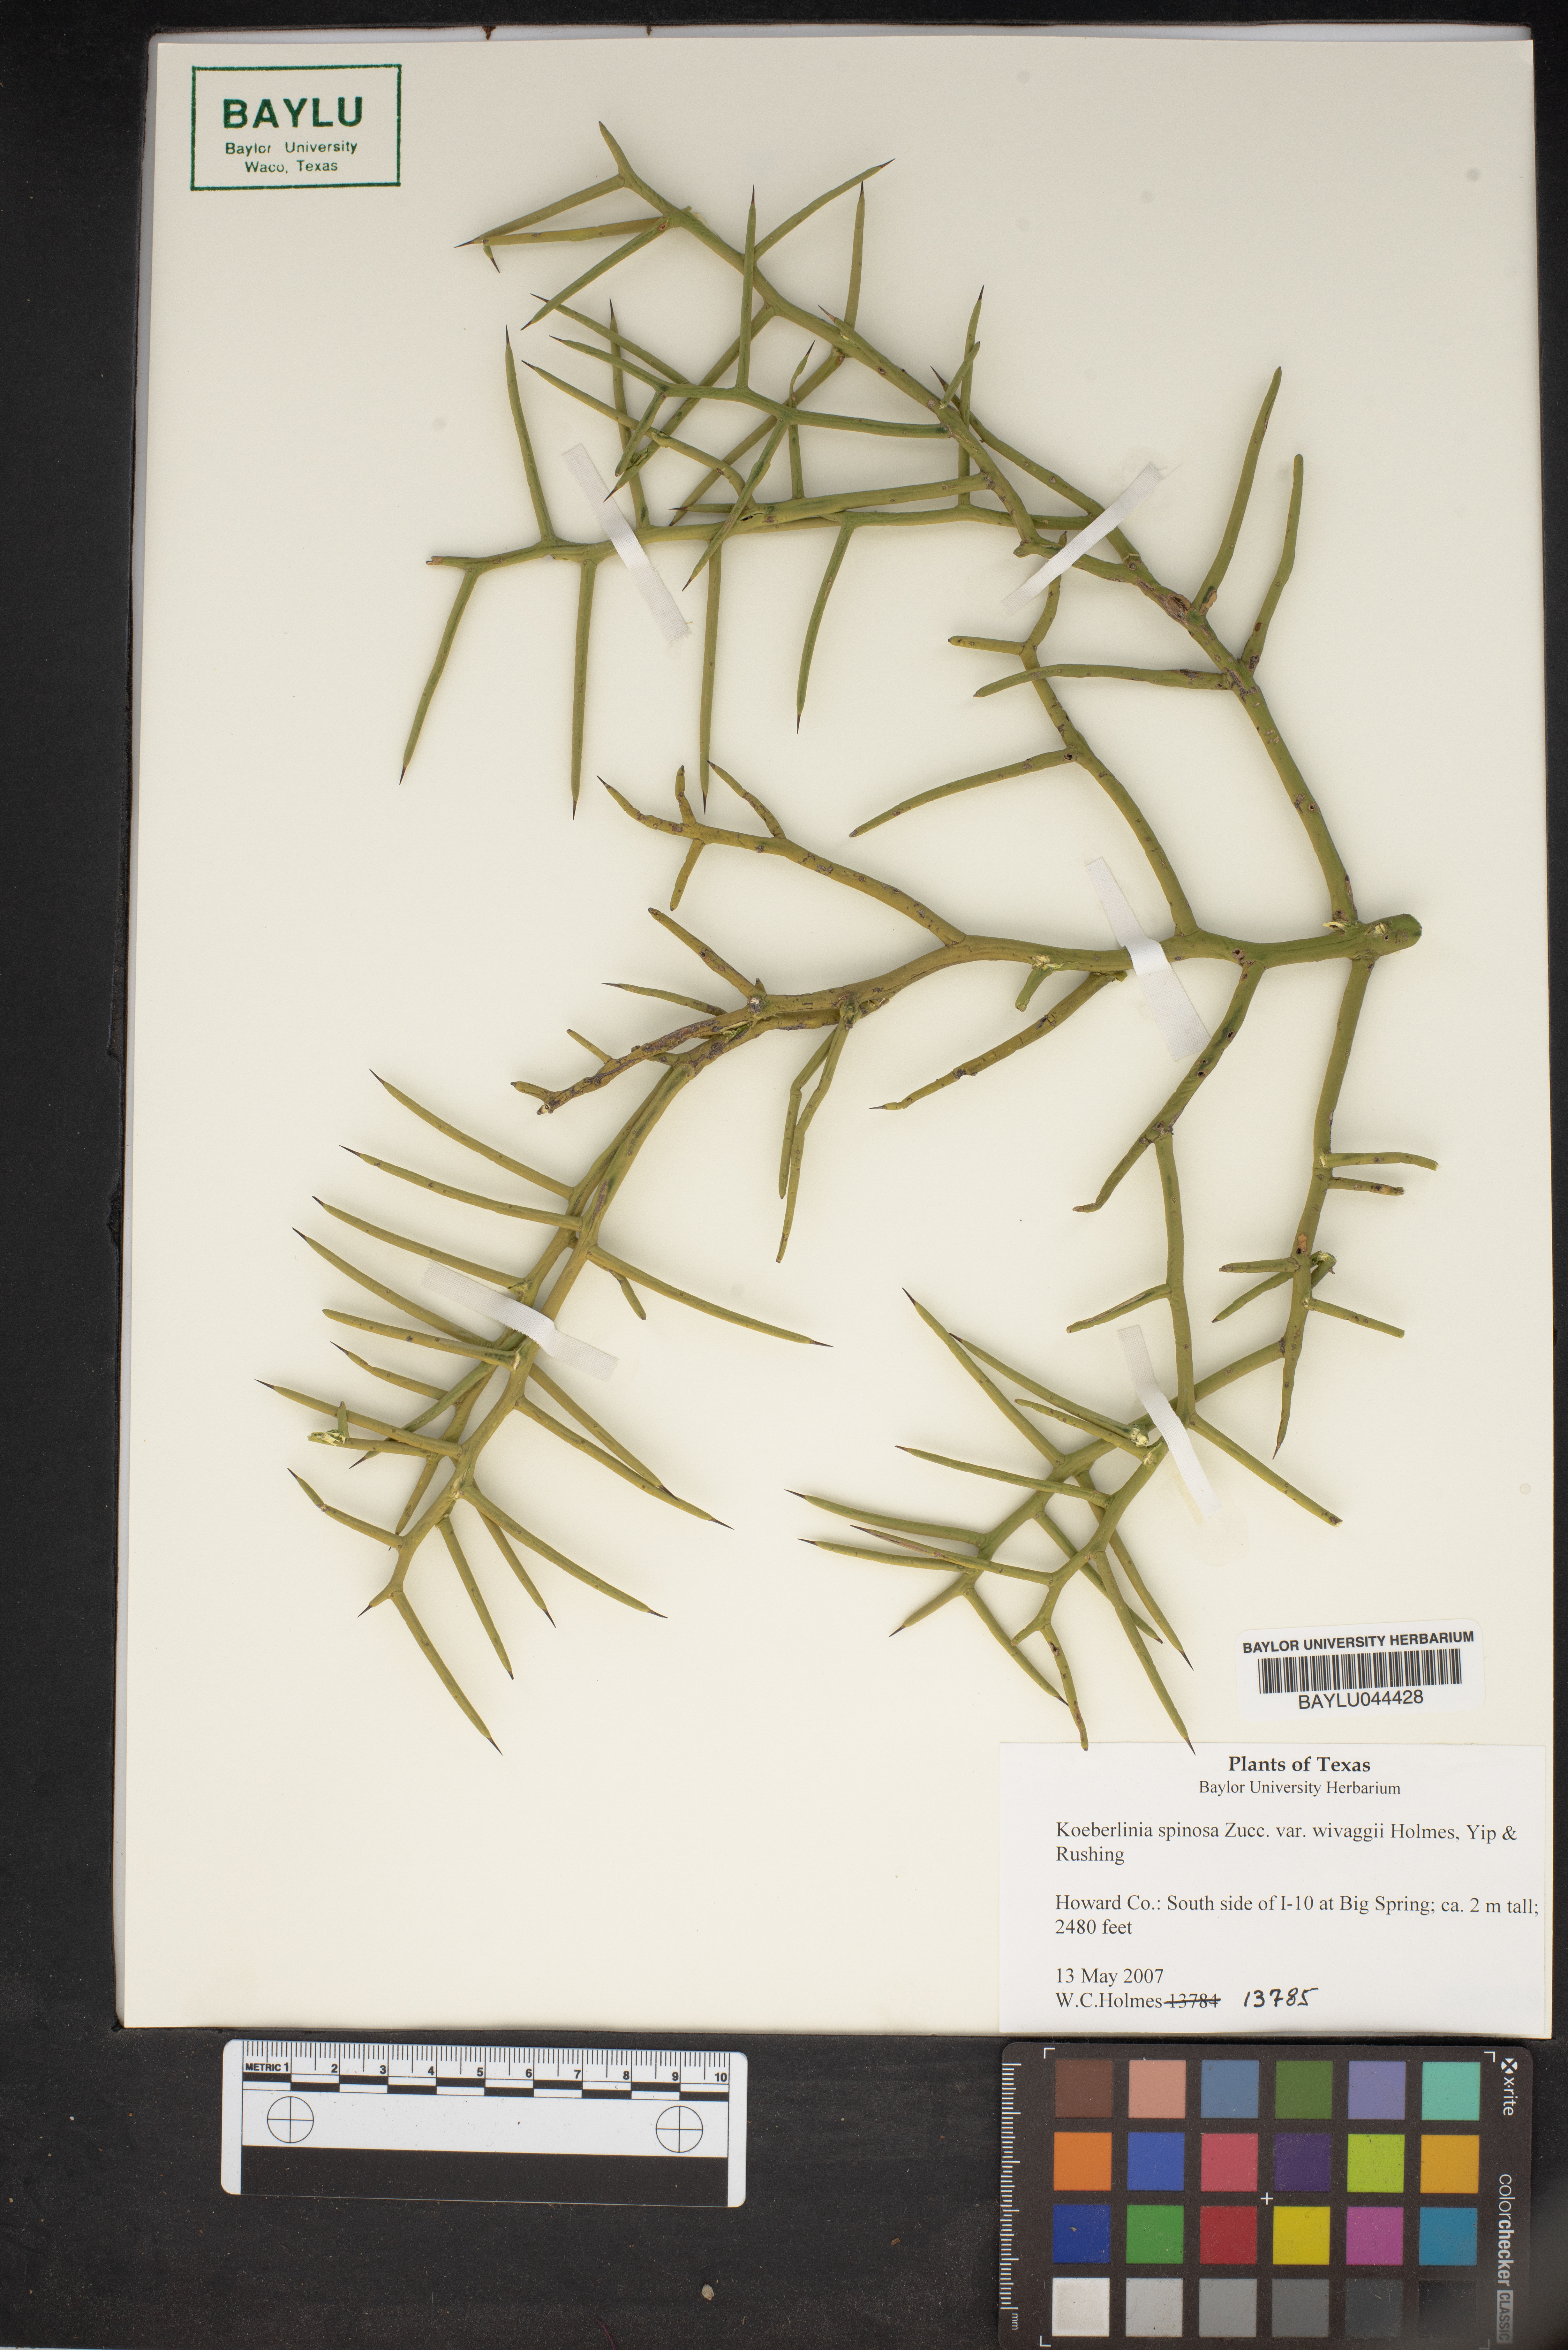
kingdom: Plantae
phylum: Tracheophyta
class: Magnoliopsida
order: Brassicales
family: Koeberliniaceae
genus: Koeberlinia
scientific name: Koeberlinia spinosa
